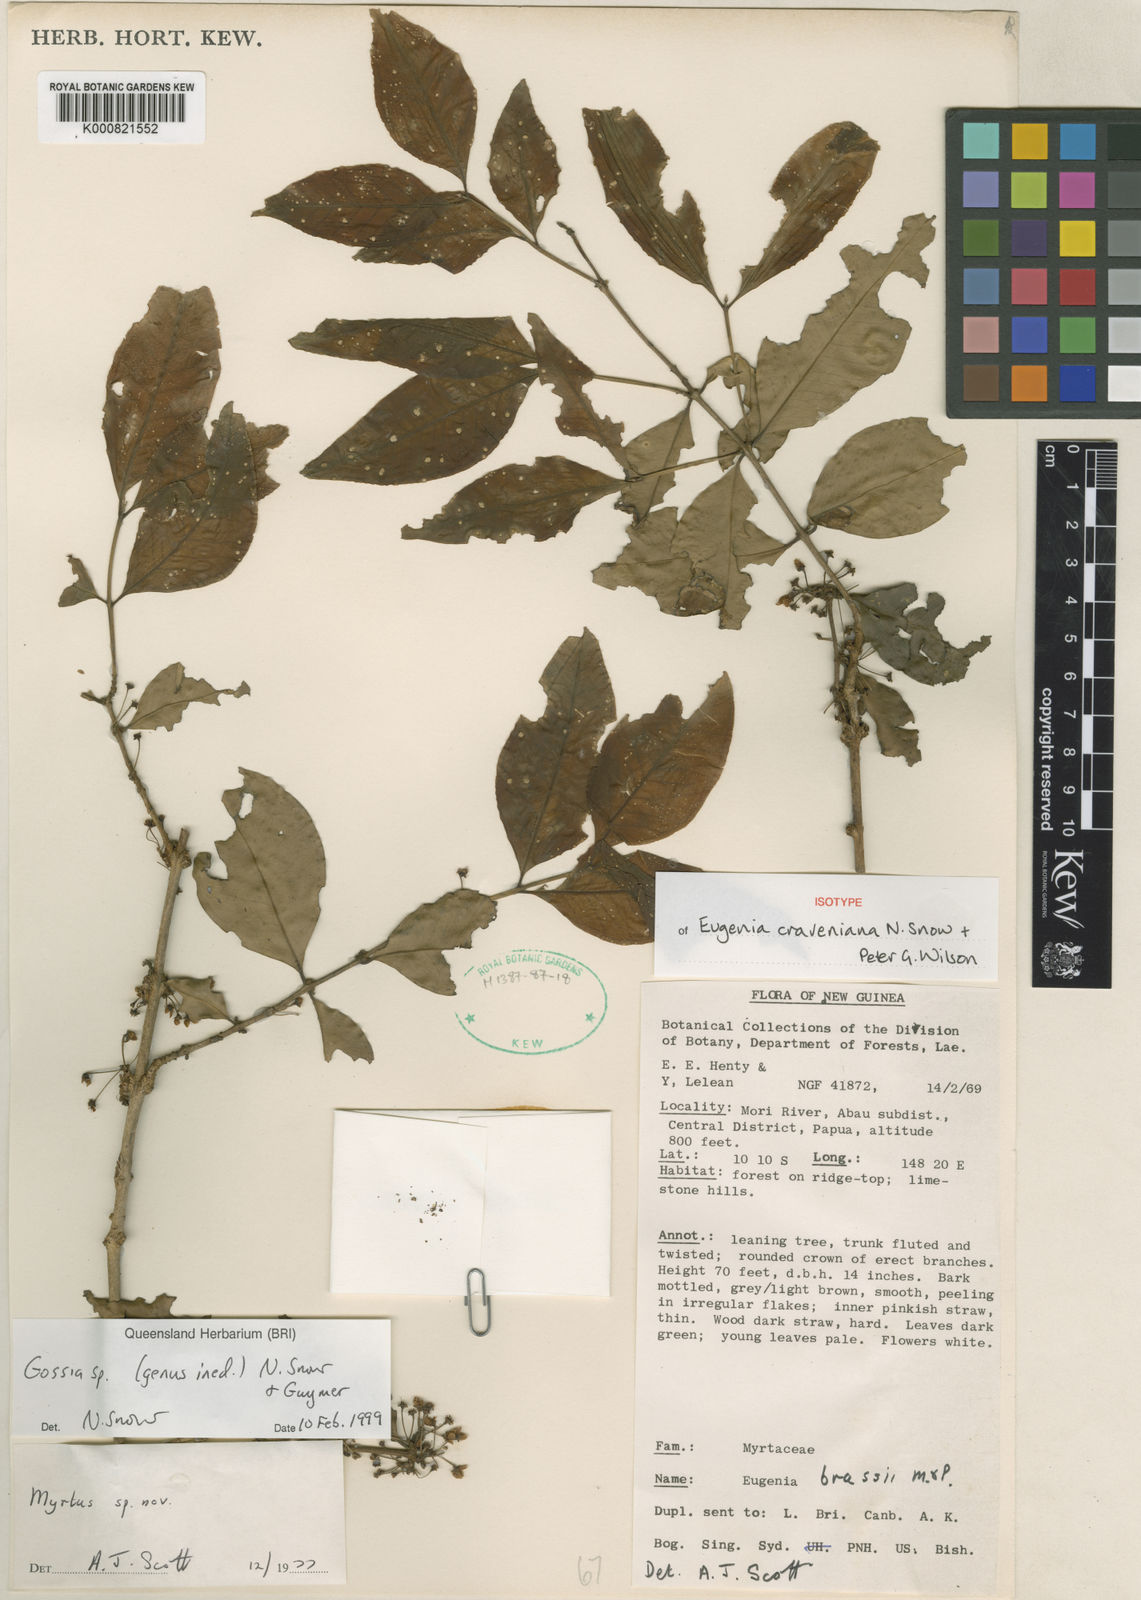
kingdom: Plantae
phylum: Tracheophyta
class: Magnoliopsida
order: Myrtales
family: Myrtaceae
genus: Eugenia
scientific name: Eugenia craveniana
